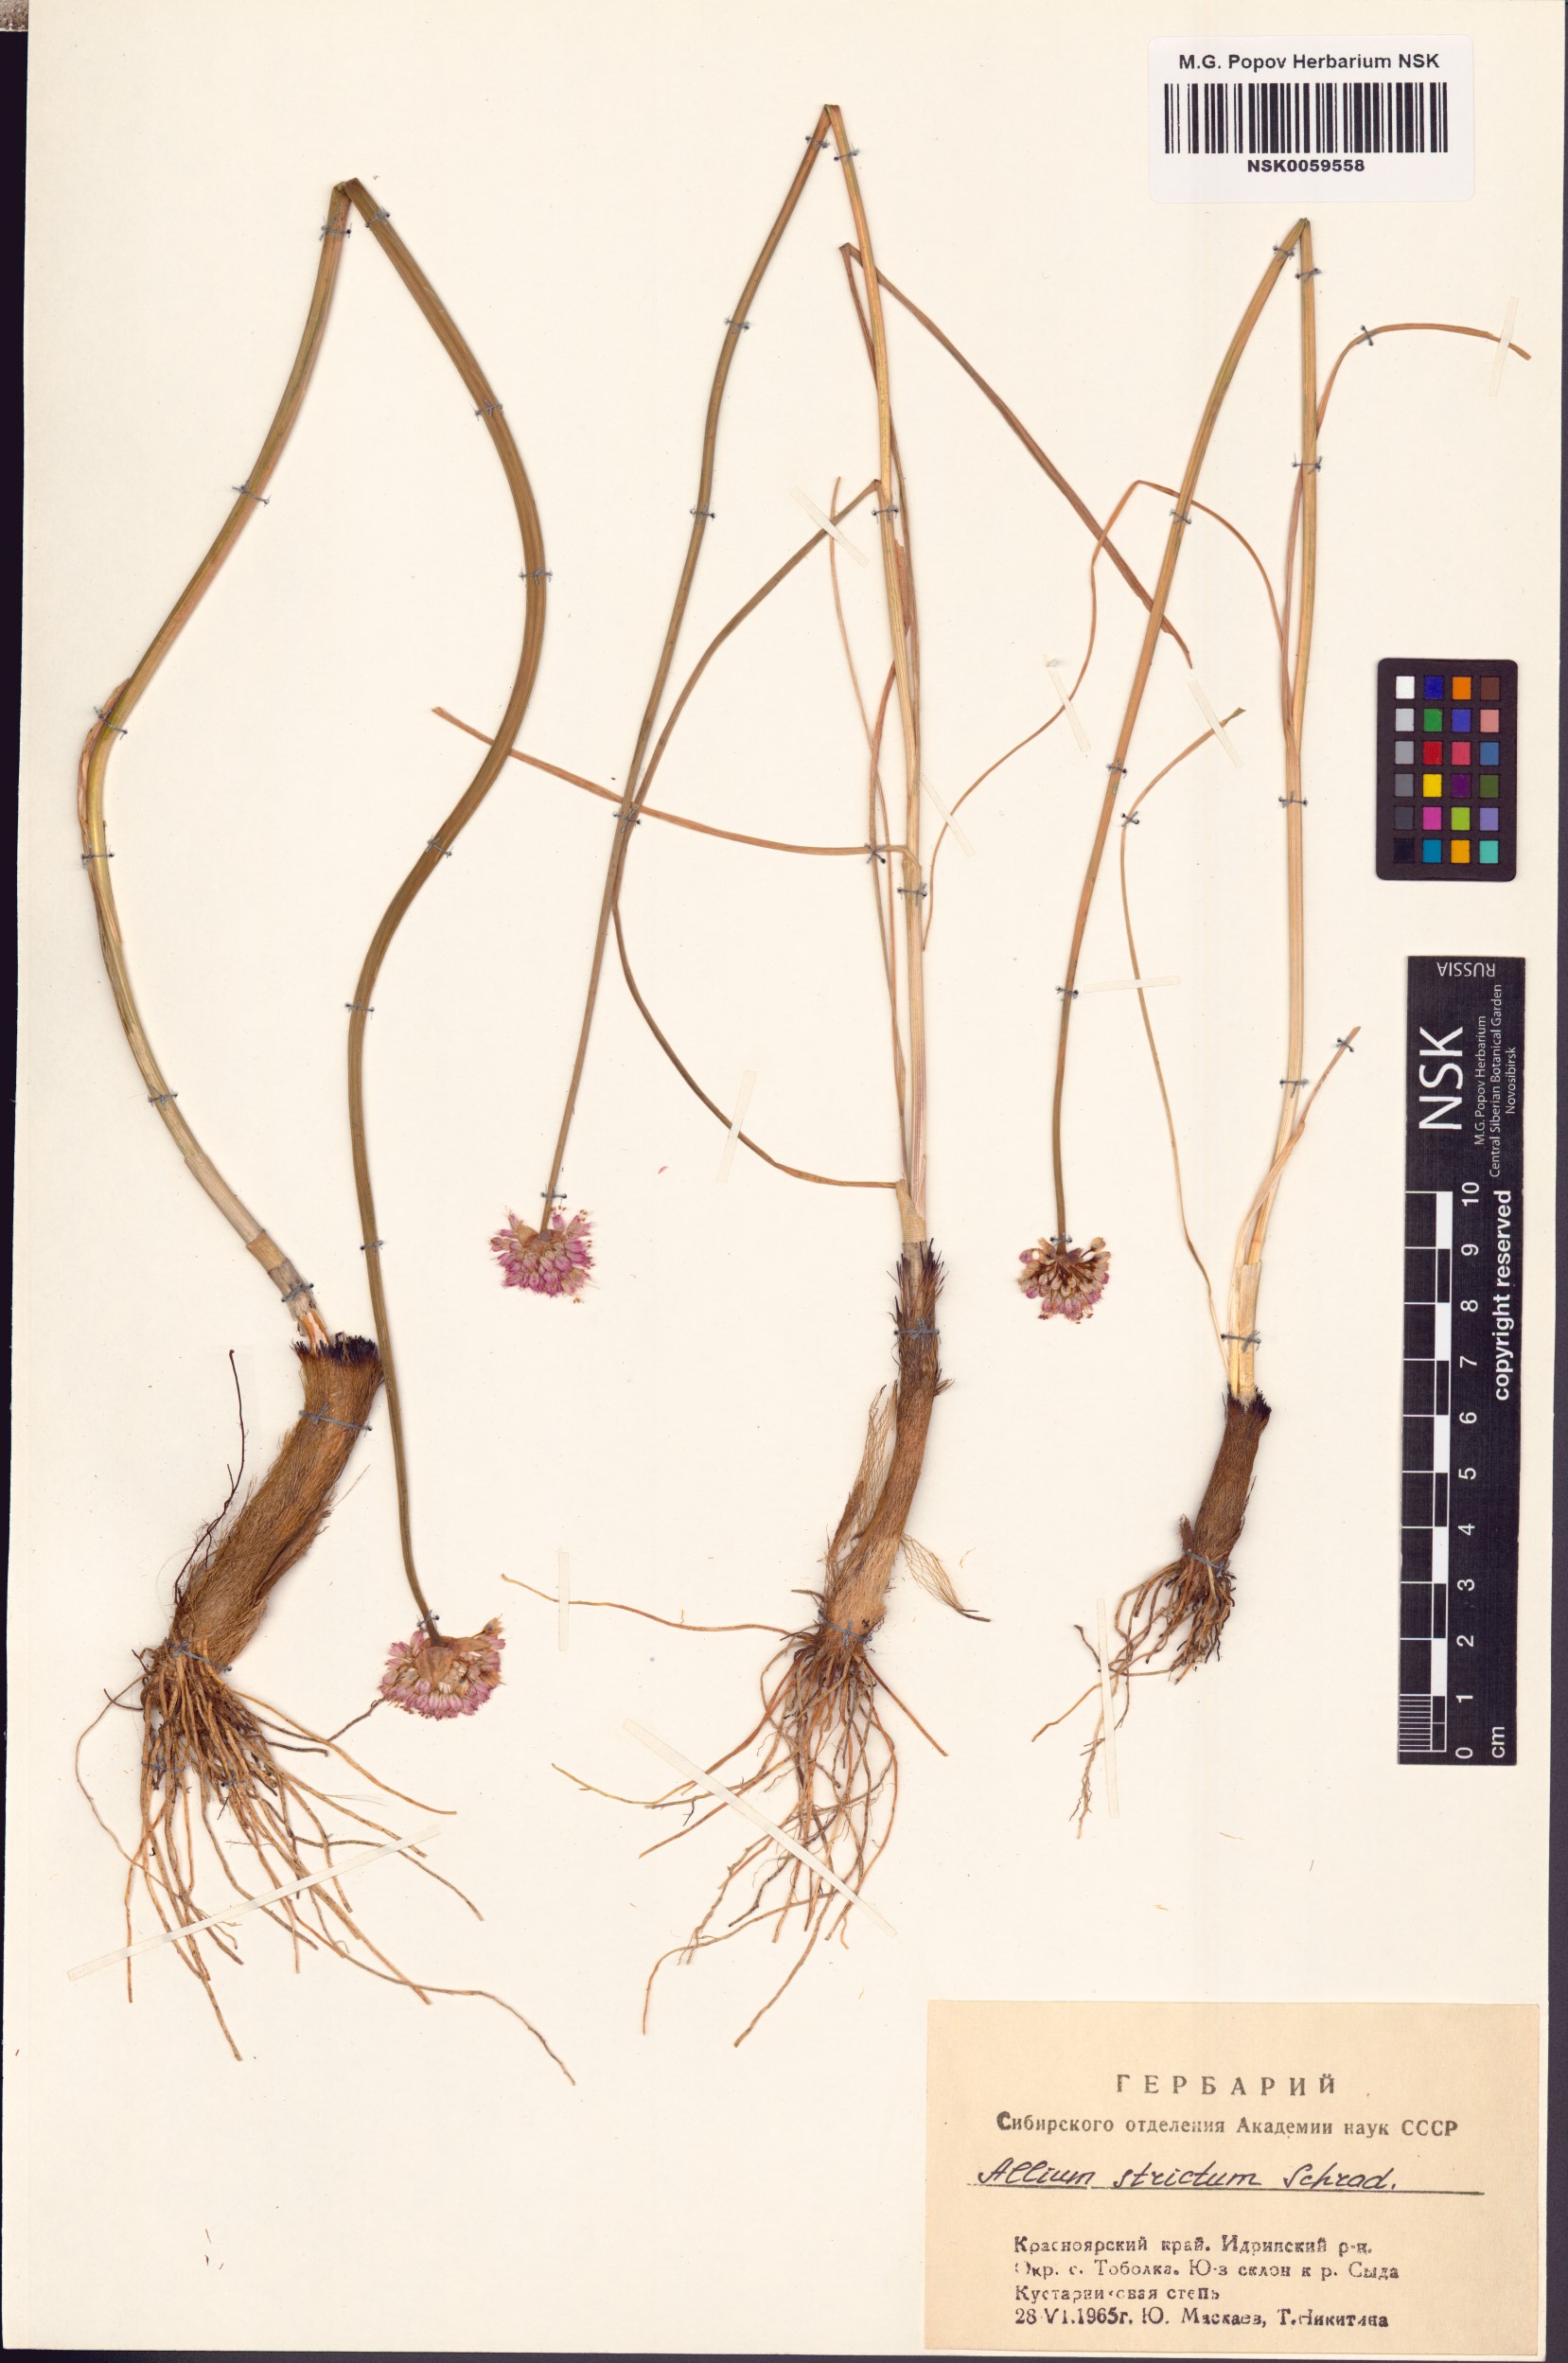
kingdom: Plantae
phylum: Tracheophyta
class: Liliopsida
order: Asparagales
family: Amaryllidaceae
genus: Allium
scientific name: Allium strictum
